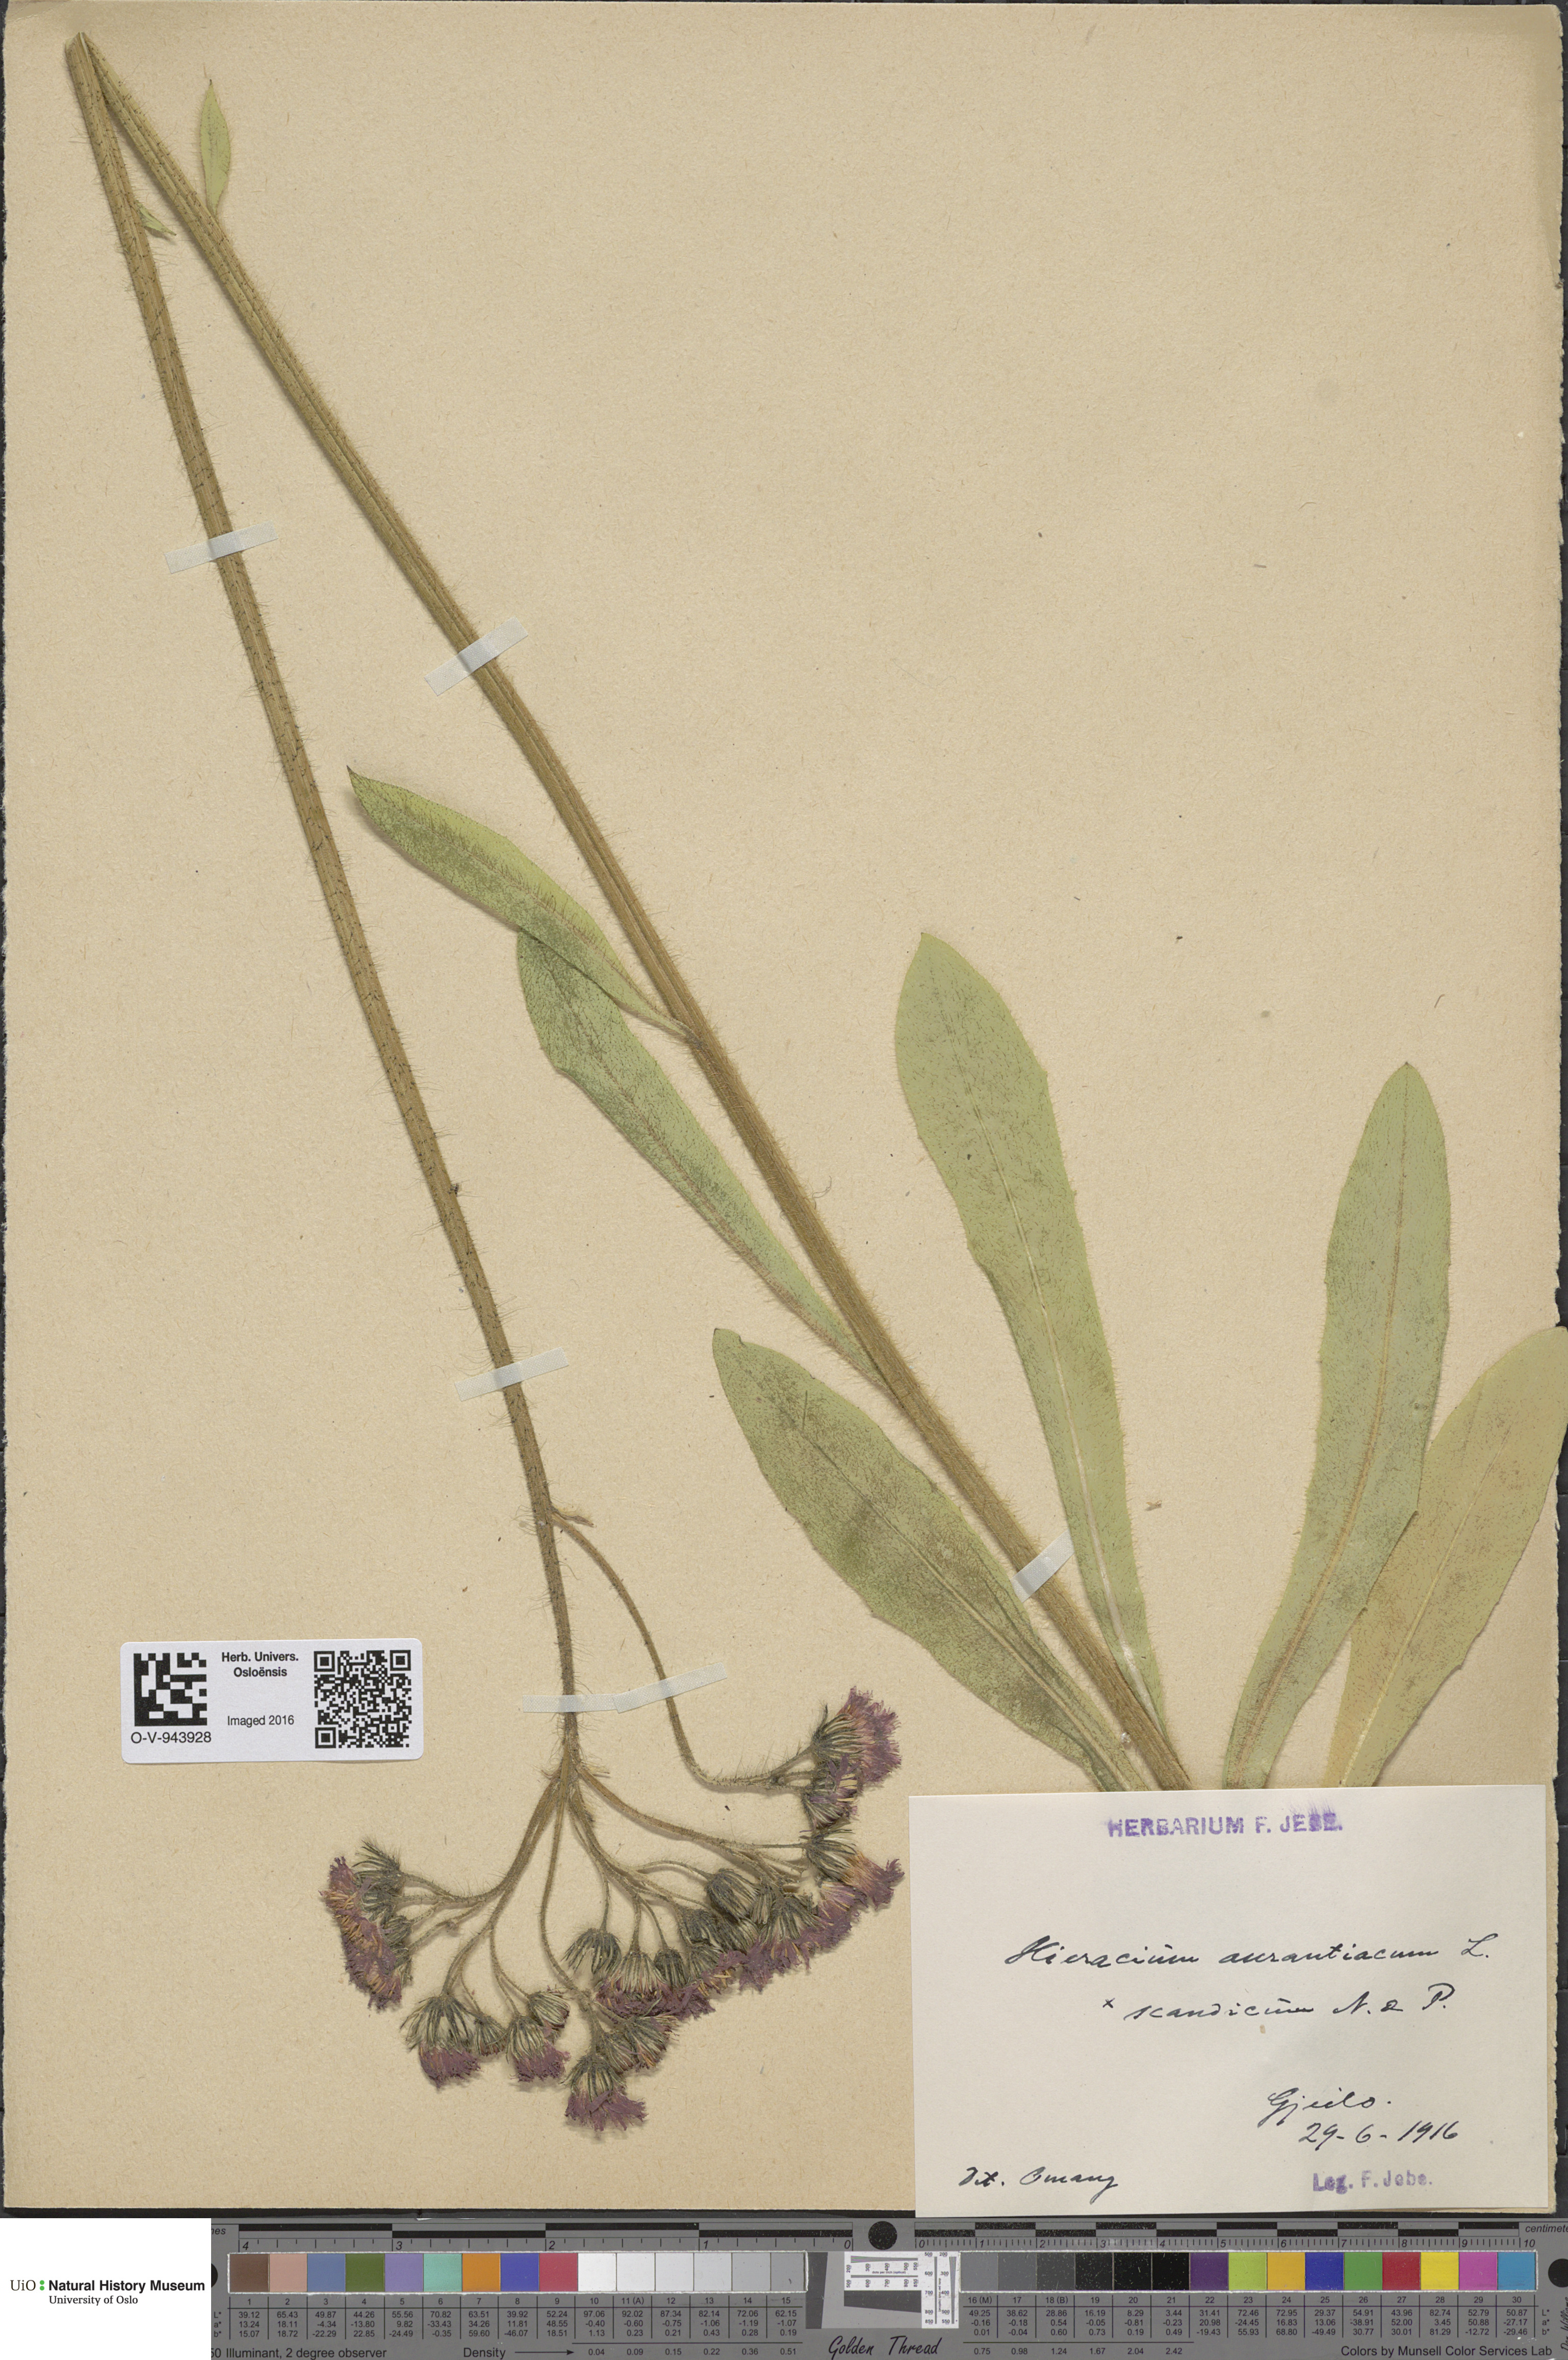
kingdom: Plantae
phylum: Tracheophyta
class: Magnoliopsida
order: Asterales
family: Asteraceae
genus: Pilosella
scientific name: Pilosella aurantiaca
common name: Fox-and-cubs
